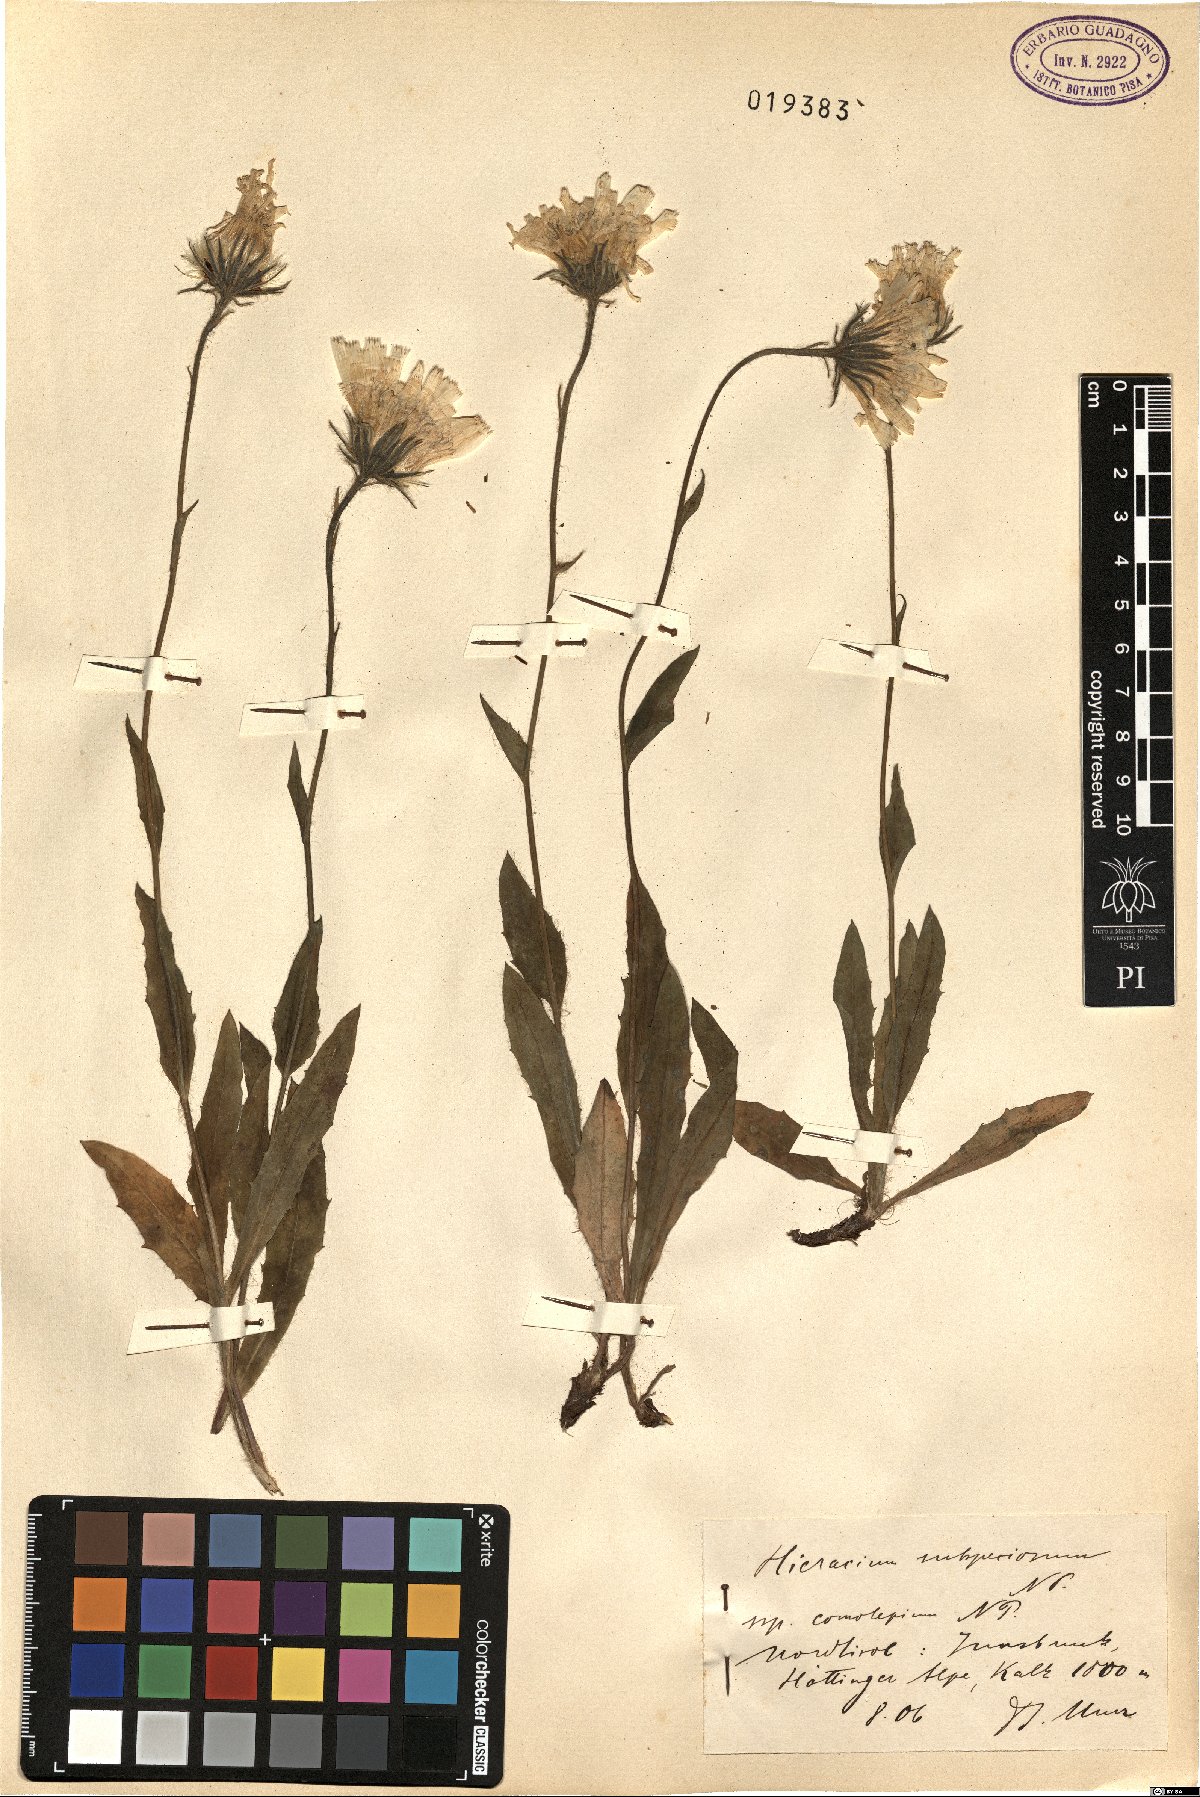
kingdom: Plantae
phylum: Tracheophyta
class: Magnoliopsida
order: Asterales
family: Asteraceae
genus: Hieracium
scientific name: Hieracium subspeciosum
